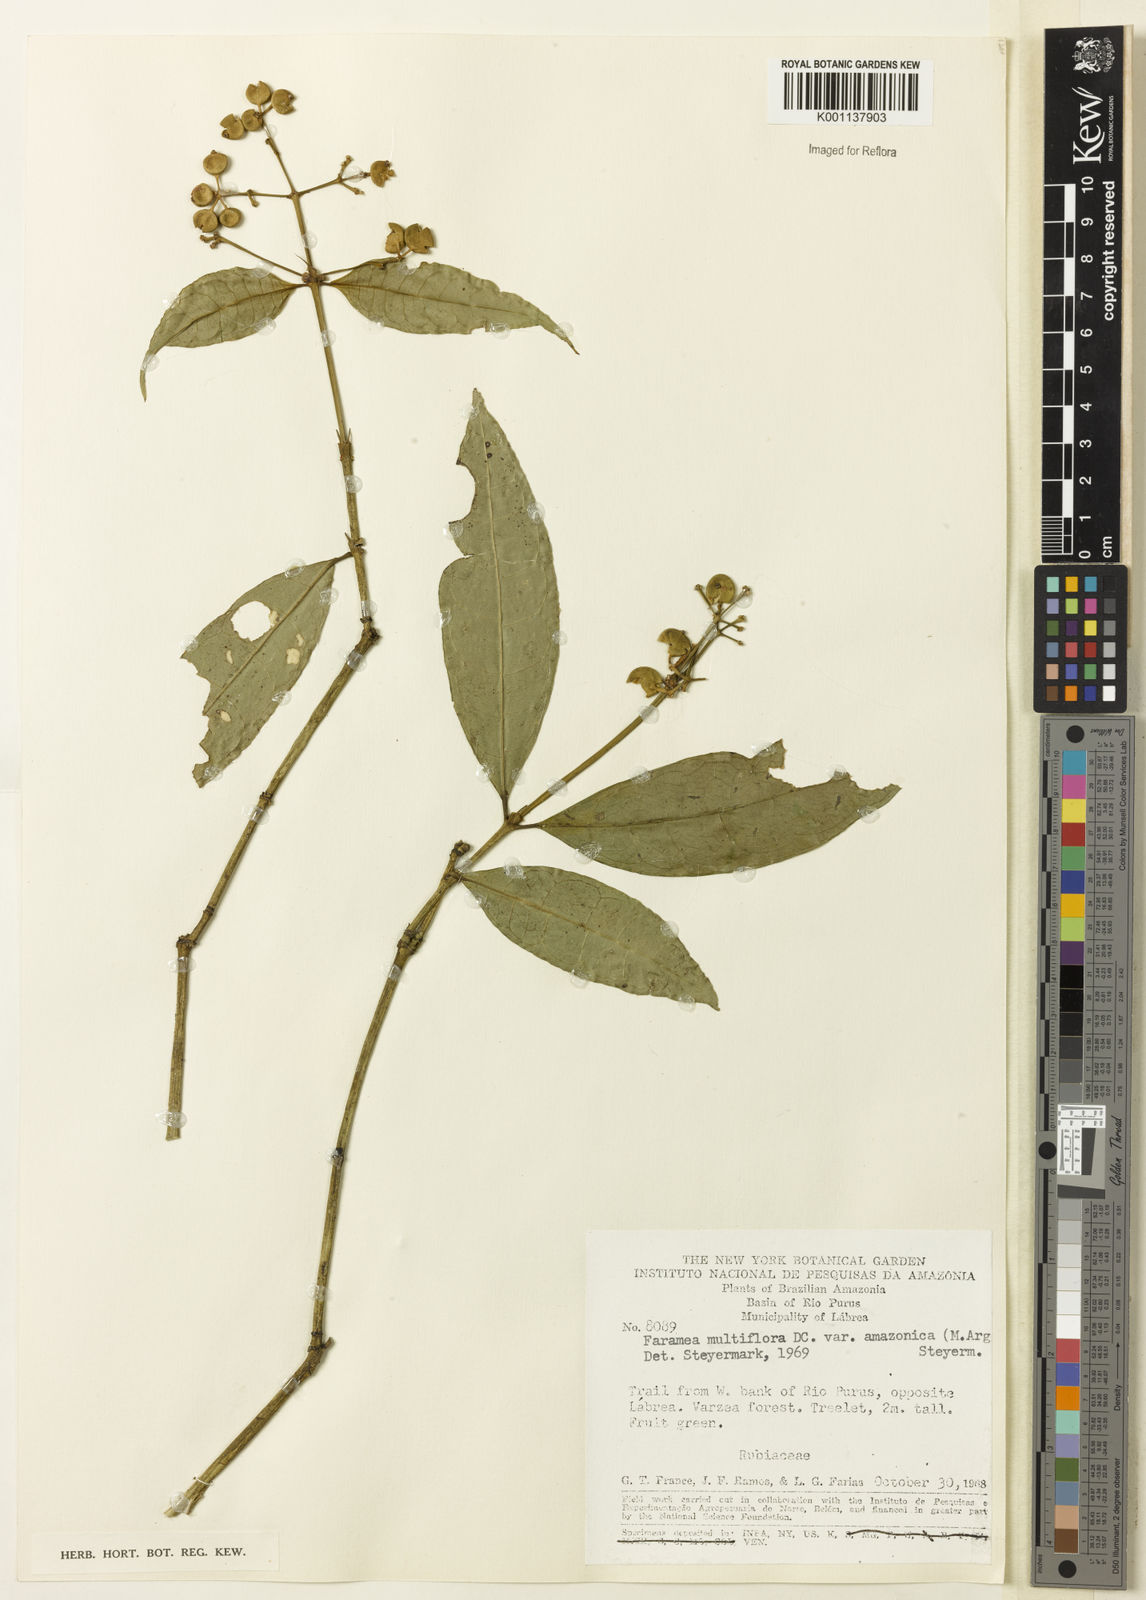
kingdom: Plantae
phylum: Tracheophyta
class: Magnoliopsida
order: Gentianales
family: Rubiaceae
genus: Faramea
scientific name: Faramea multiflora
